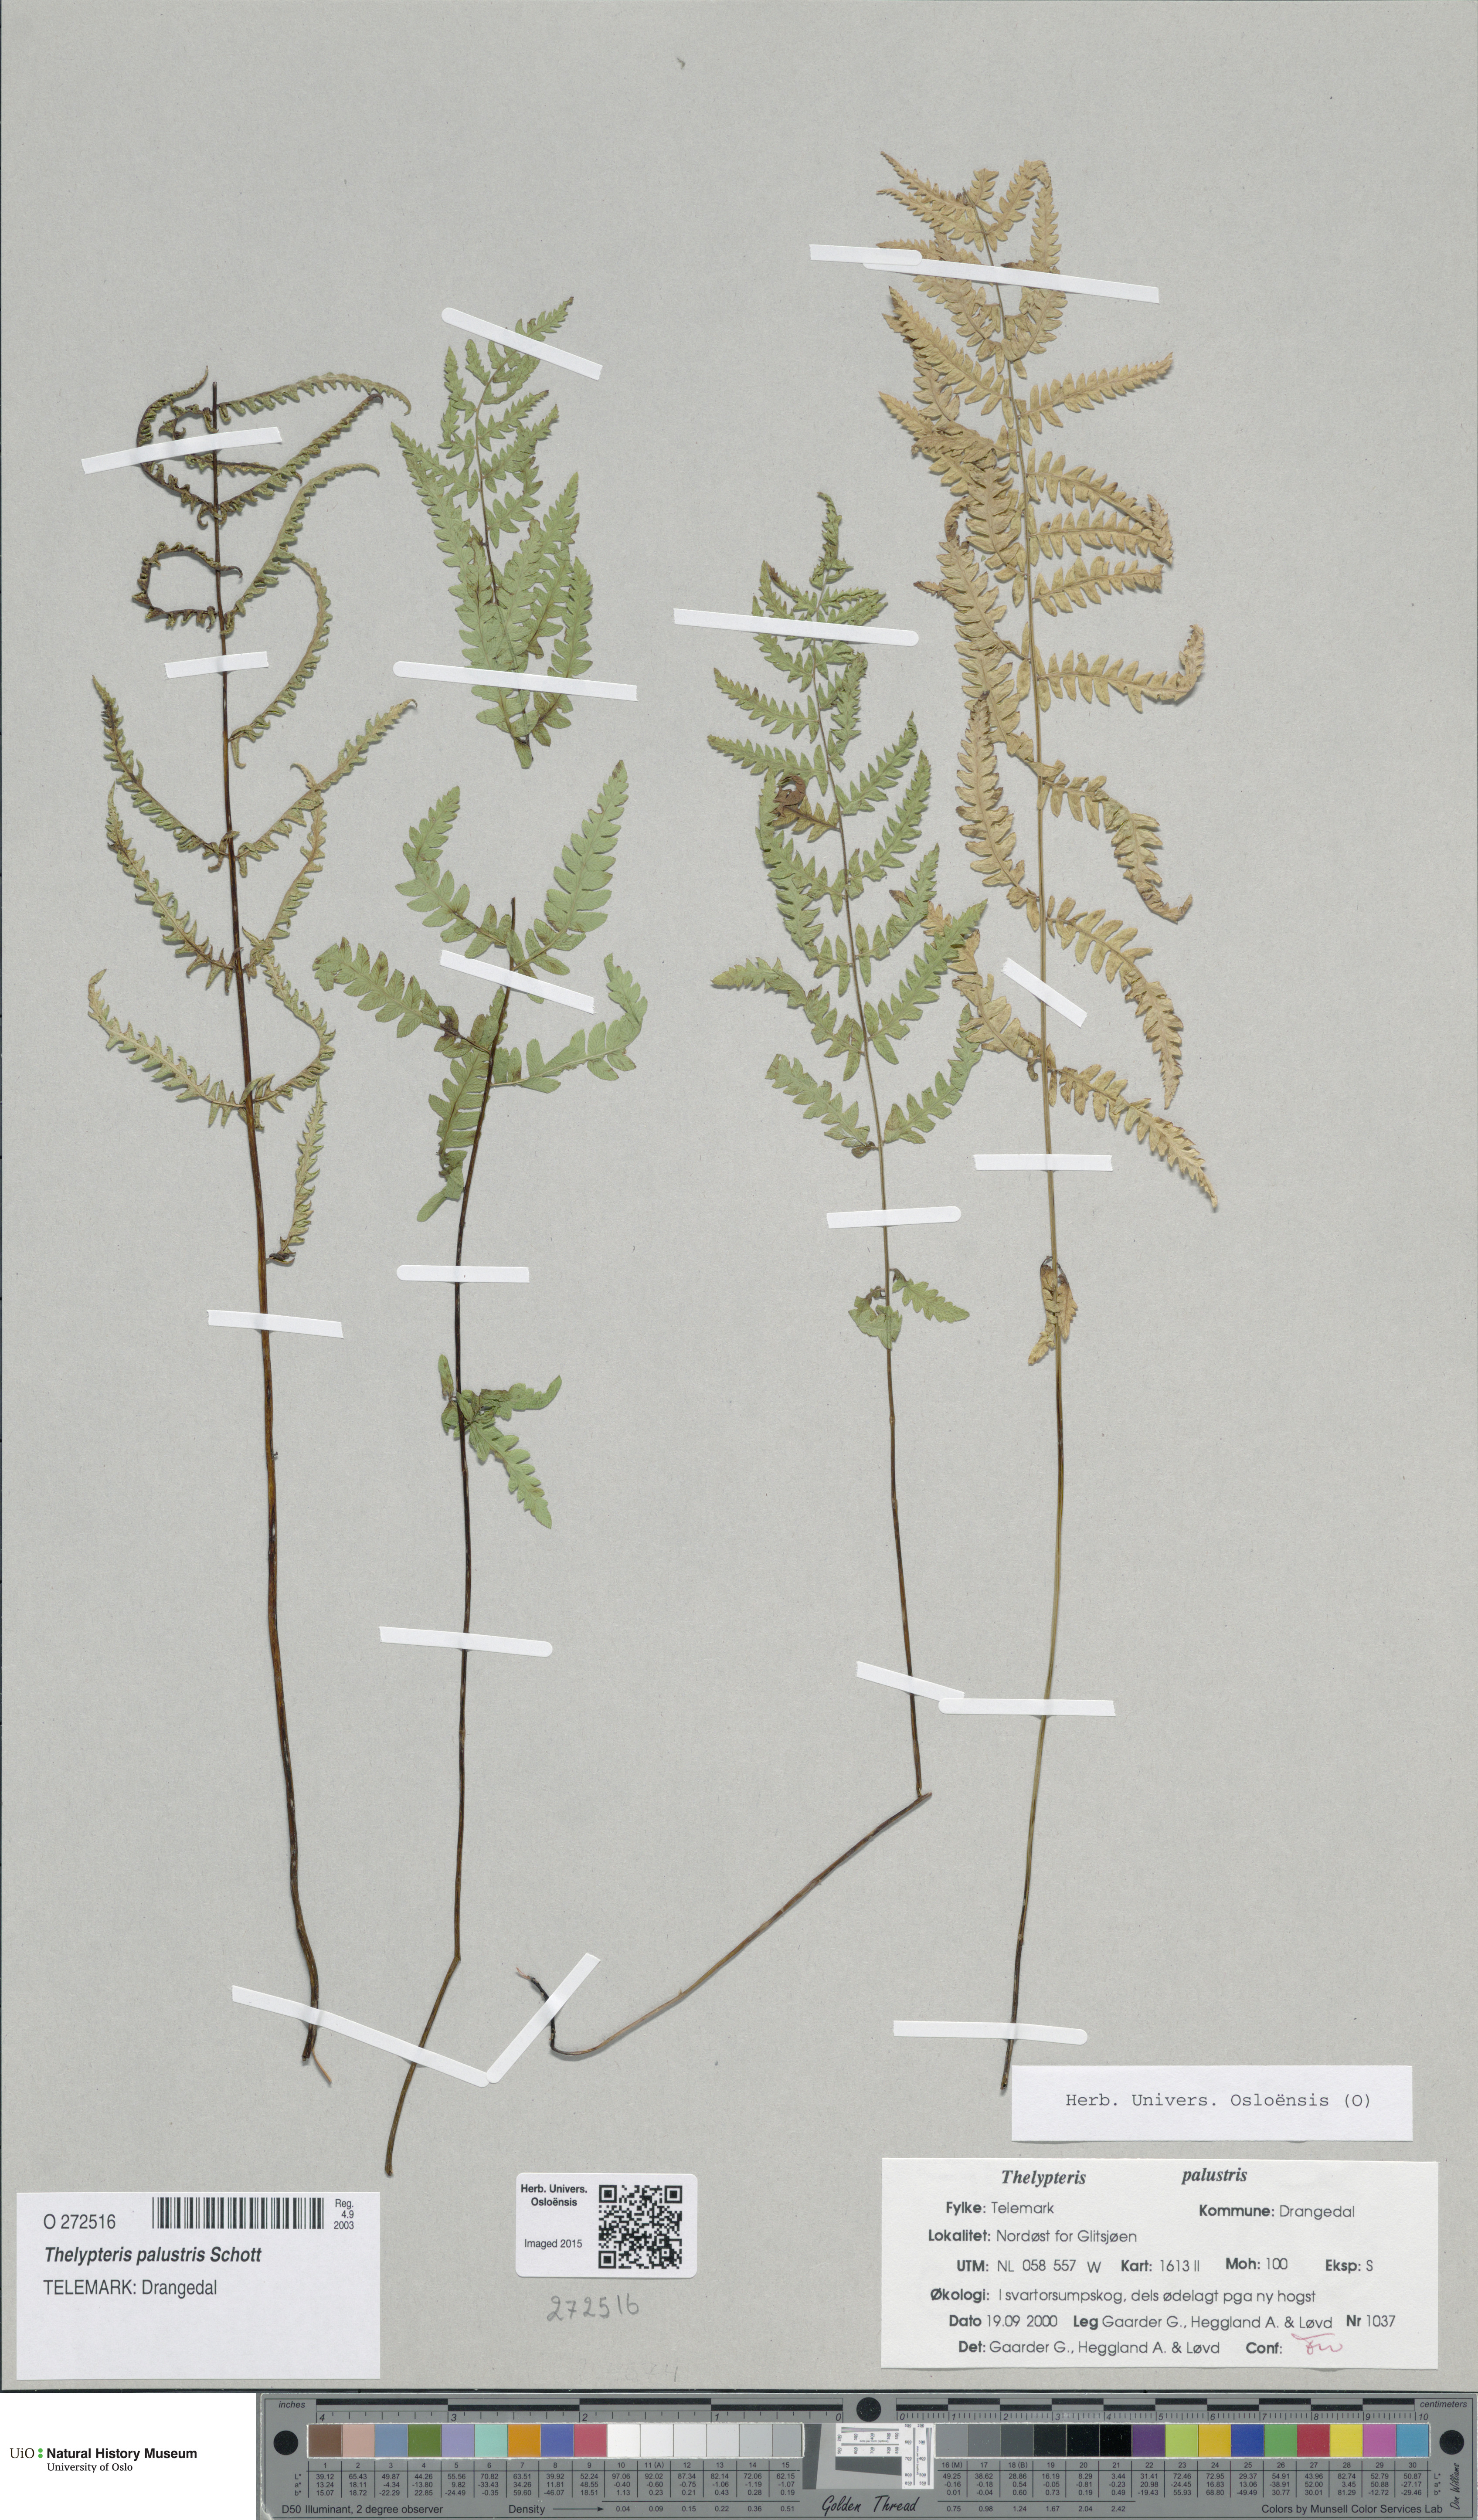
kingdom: Plantae
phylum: Tracheophyta
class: Polypodiopsida
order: Polypodiales
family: Thelypteridaceae
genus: Thelypteris
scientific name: Thelypteris palustris
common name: Marsh fern
